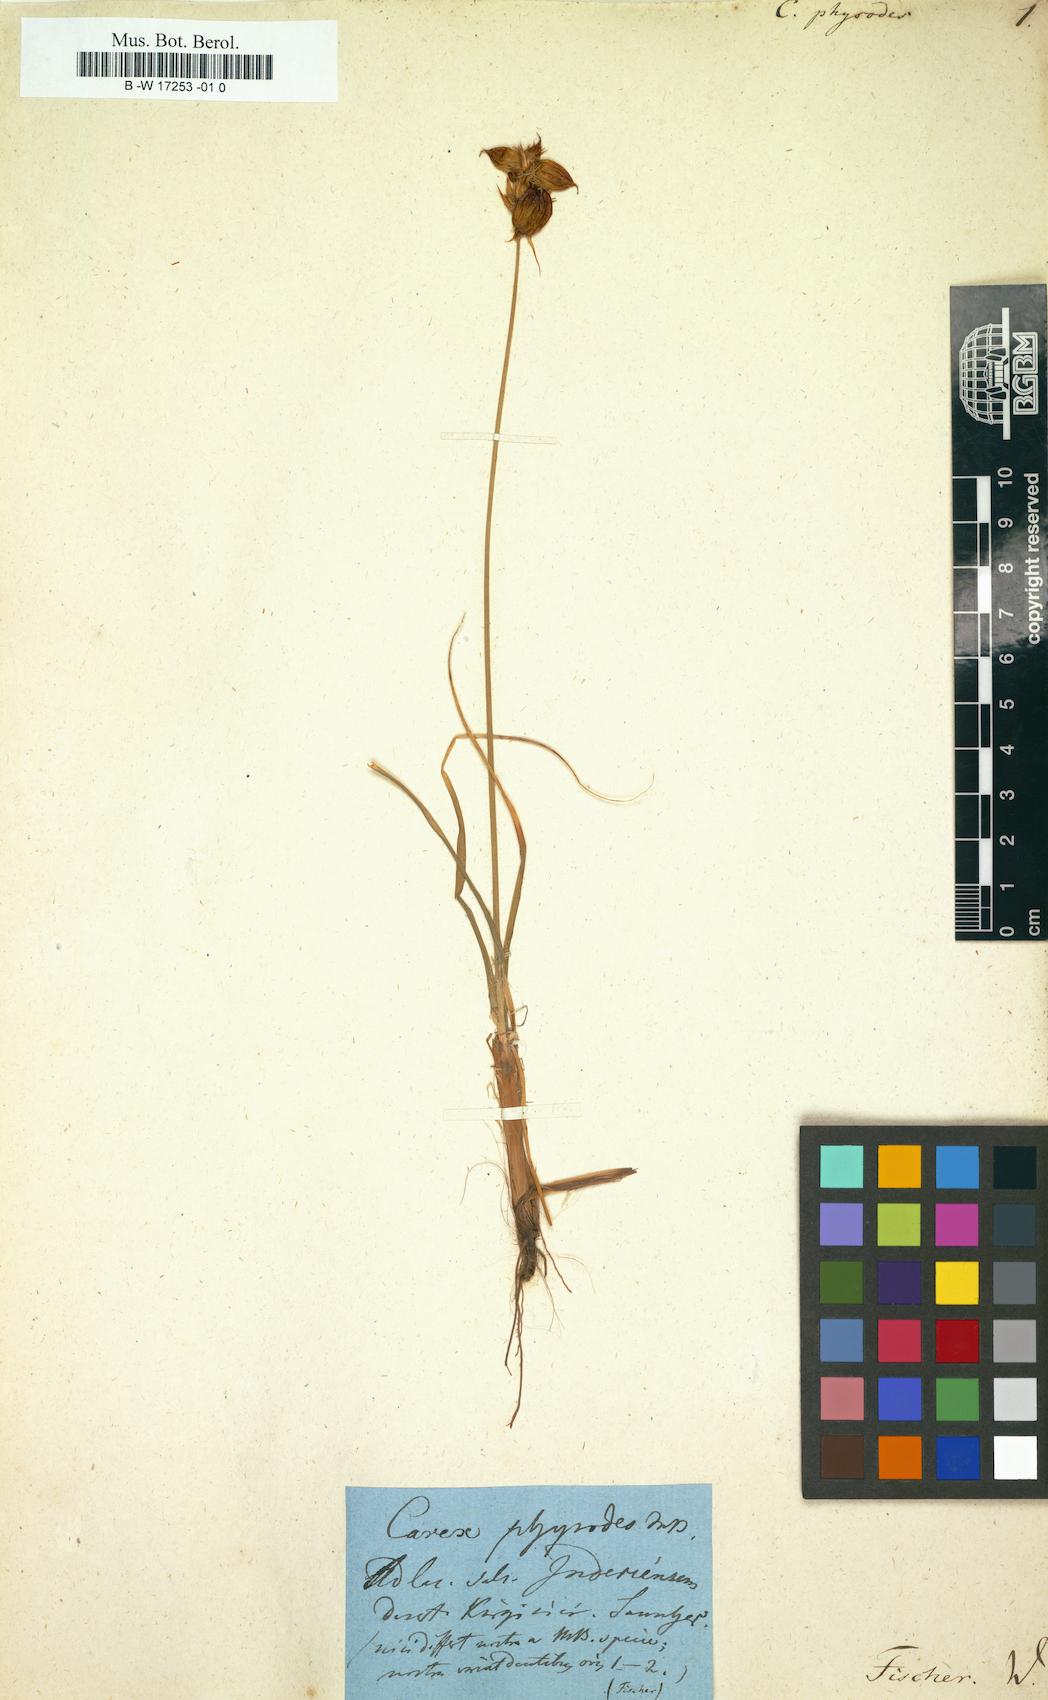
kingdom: Plantae
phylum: Tracheophyta
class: Liliopsida
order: Poales
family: Cyperaceae
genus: Carex
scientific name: Carex physodes
